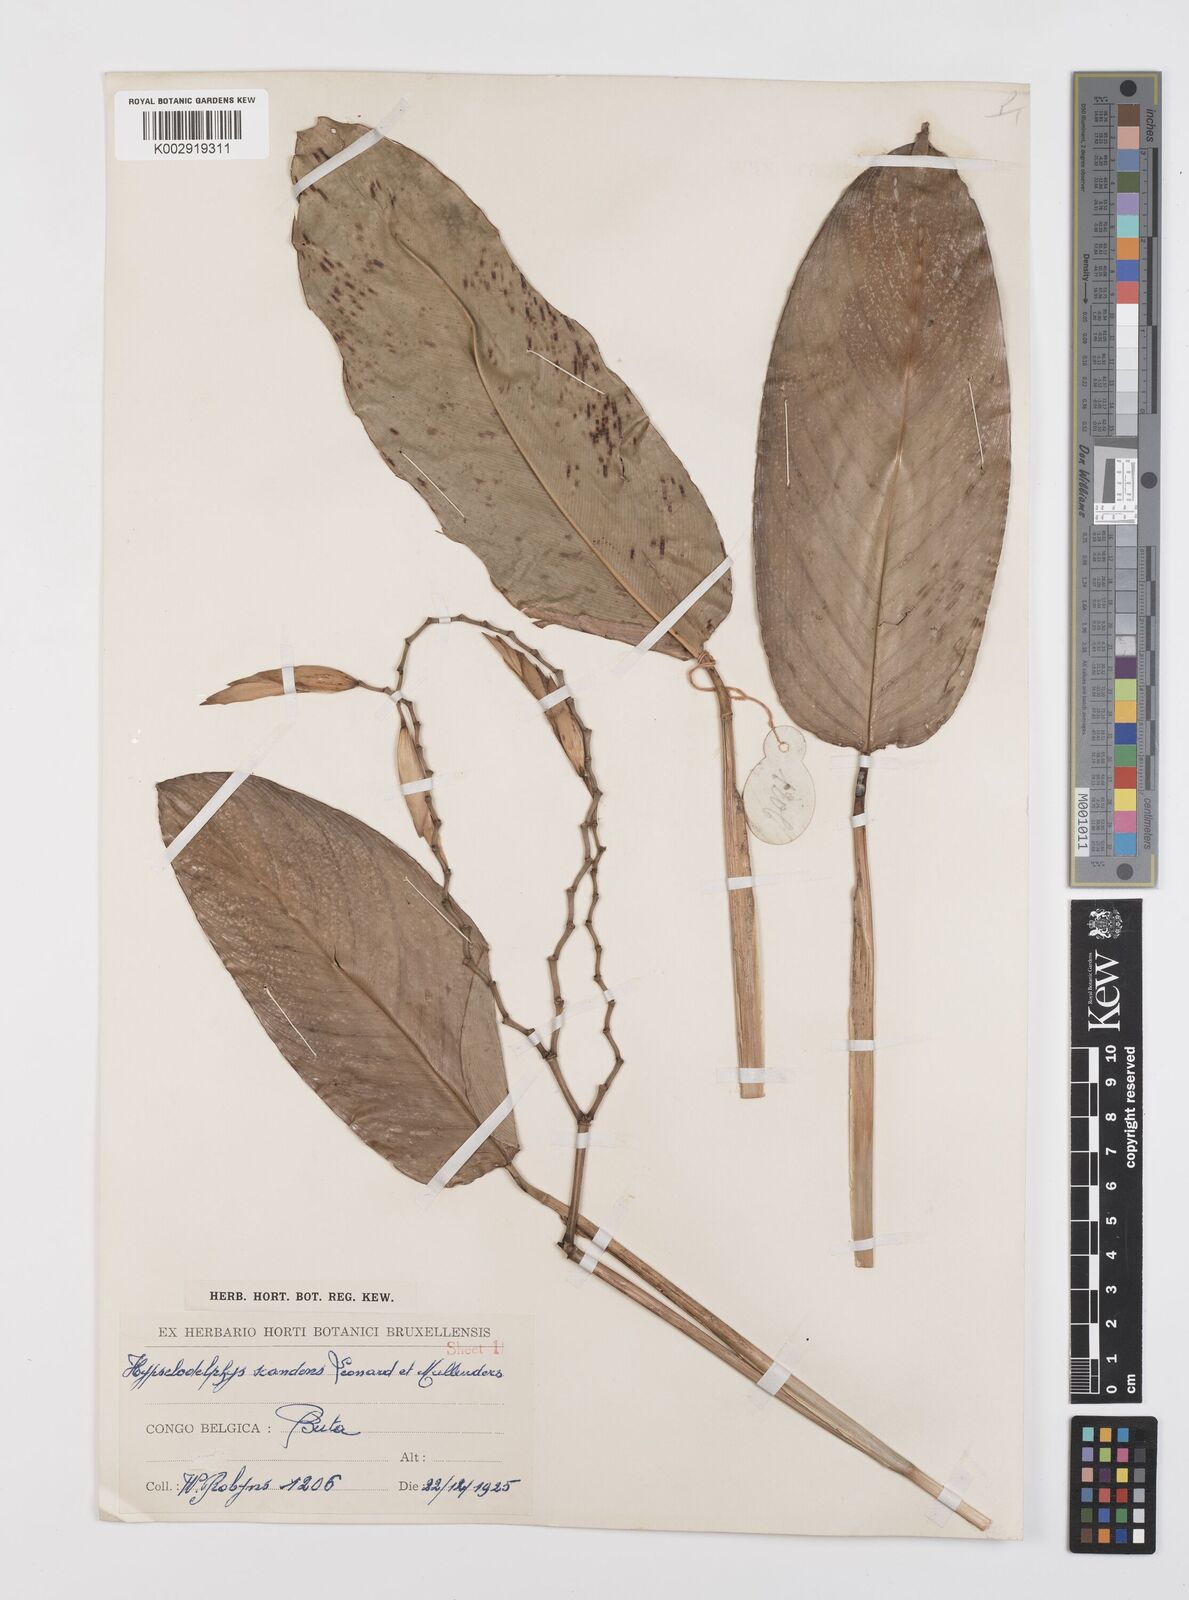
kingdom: Plantae
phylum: Tracheophyta
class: Liliopsida
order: Zingiberales
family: Marantaceae
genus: Hypselodelphys
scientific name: Hypselodelphys scandens
